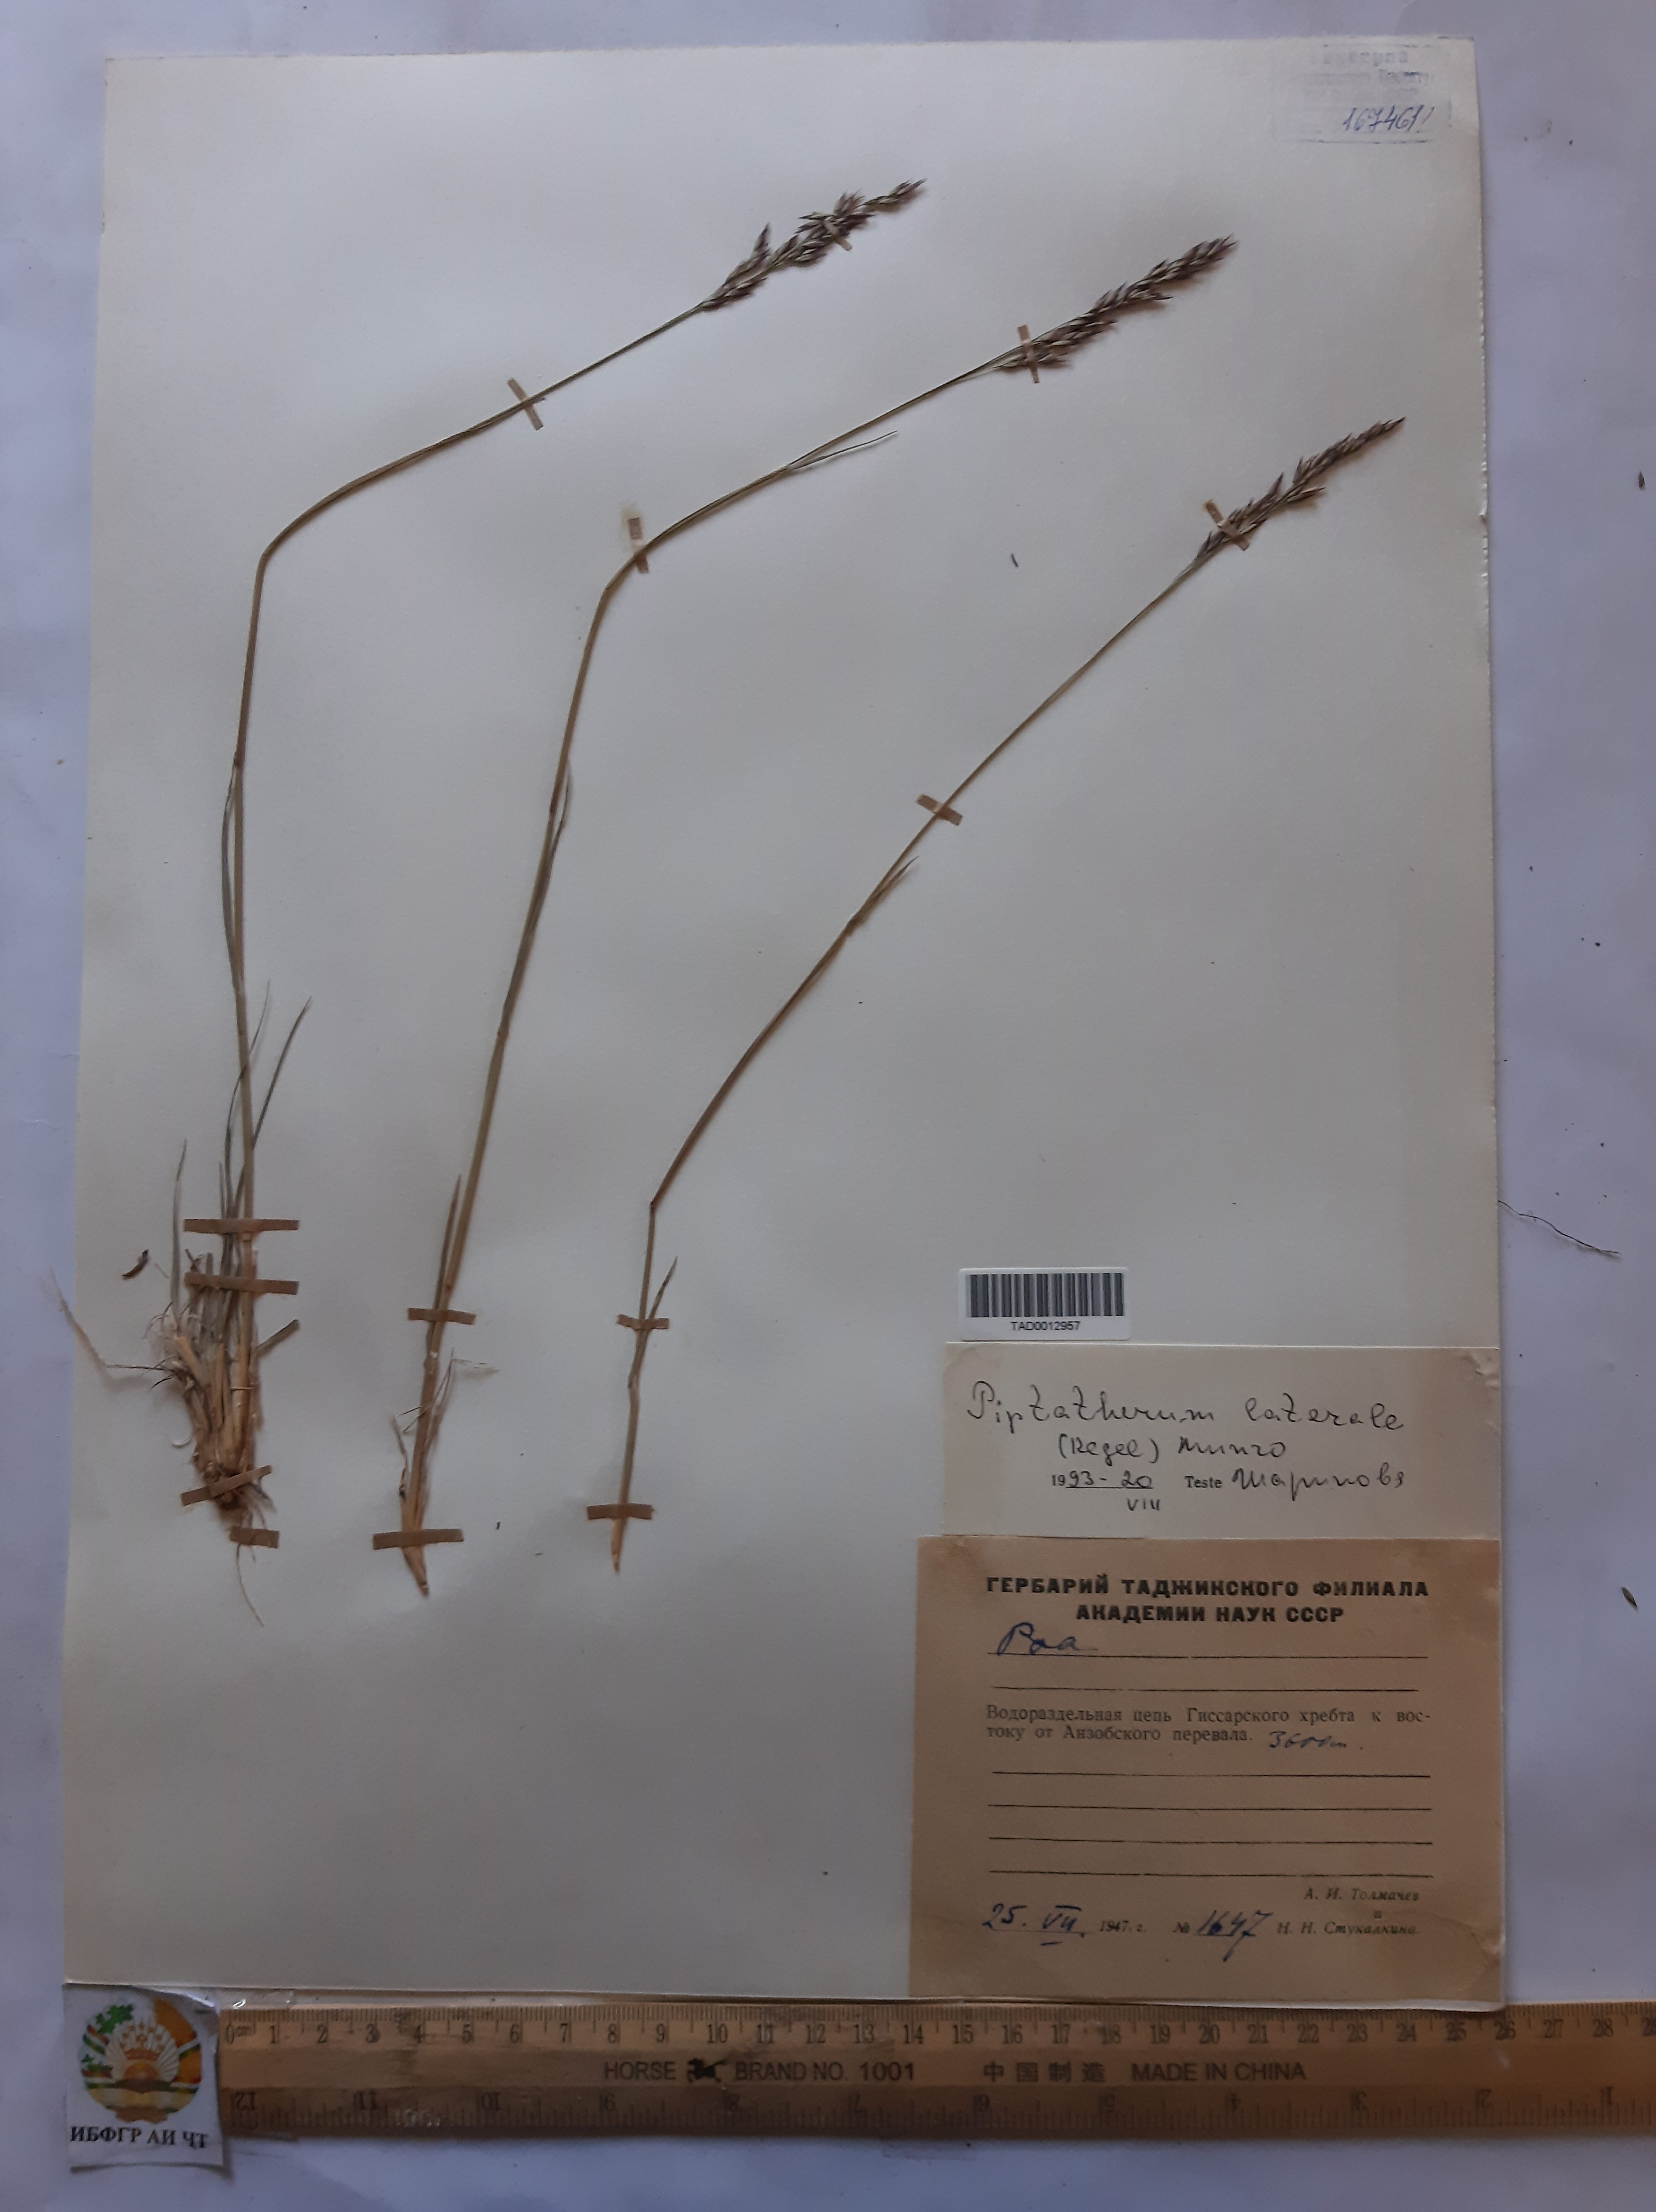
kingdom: Plantae
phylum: Tracheophyta
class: Liliopsida
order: Poales
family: Poaceae
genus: Piptatherum
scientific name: Piptatherum laterale
